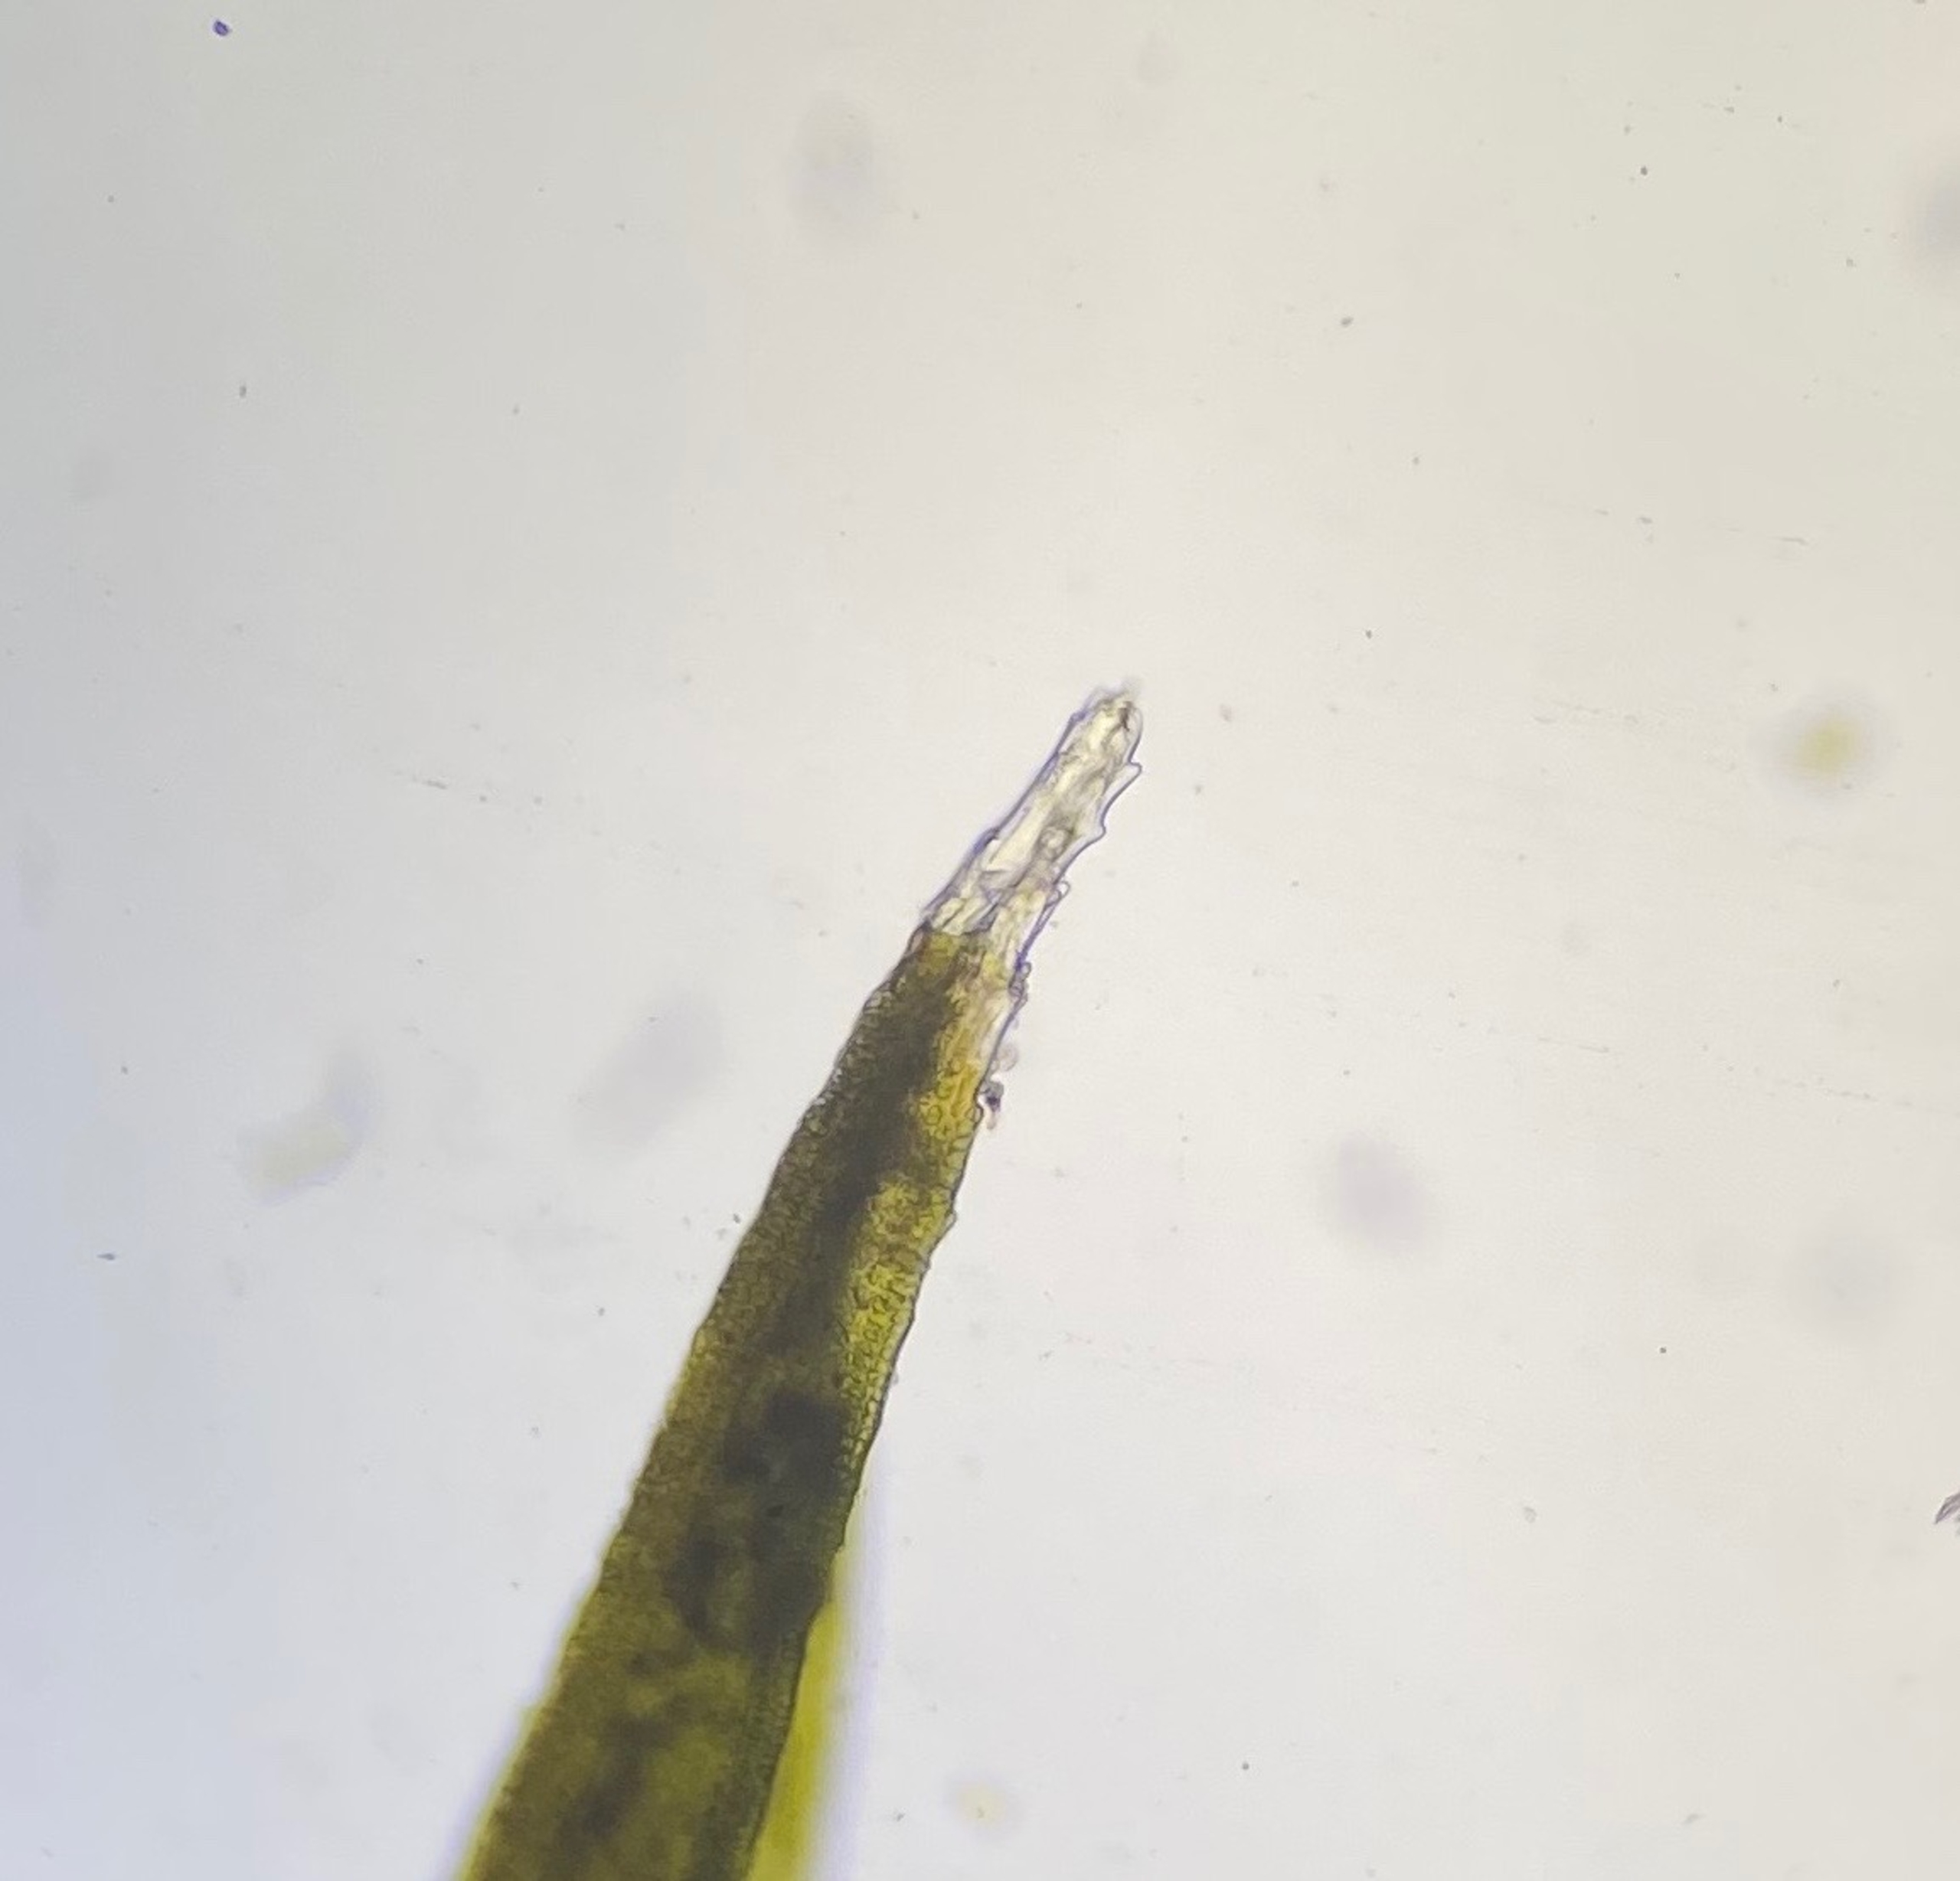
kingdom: Plantae
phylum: Bryophyta
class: Bryopsida
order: Grimmiales
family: Grimmiaceae
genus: Schistidium
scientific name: Schistidium
